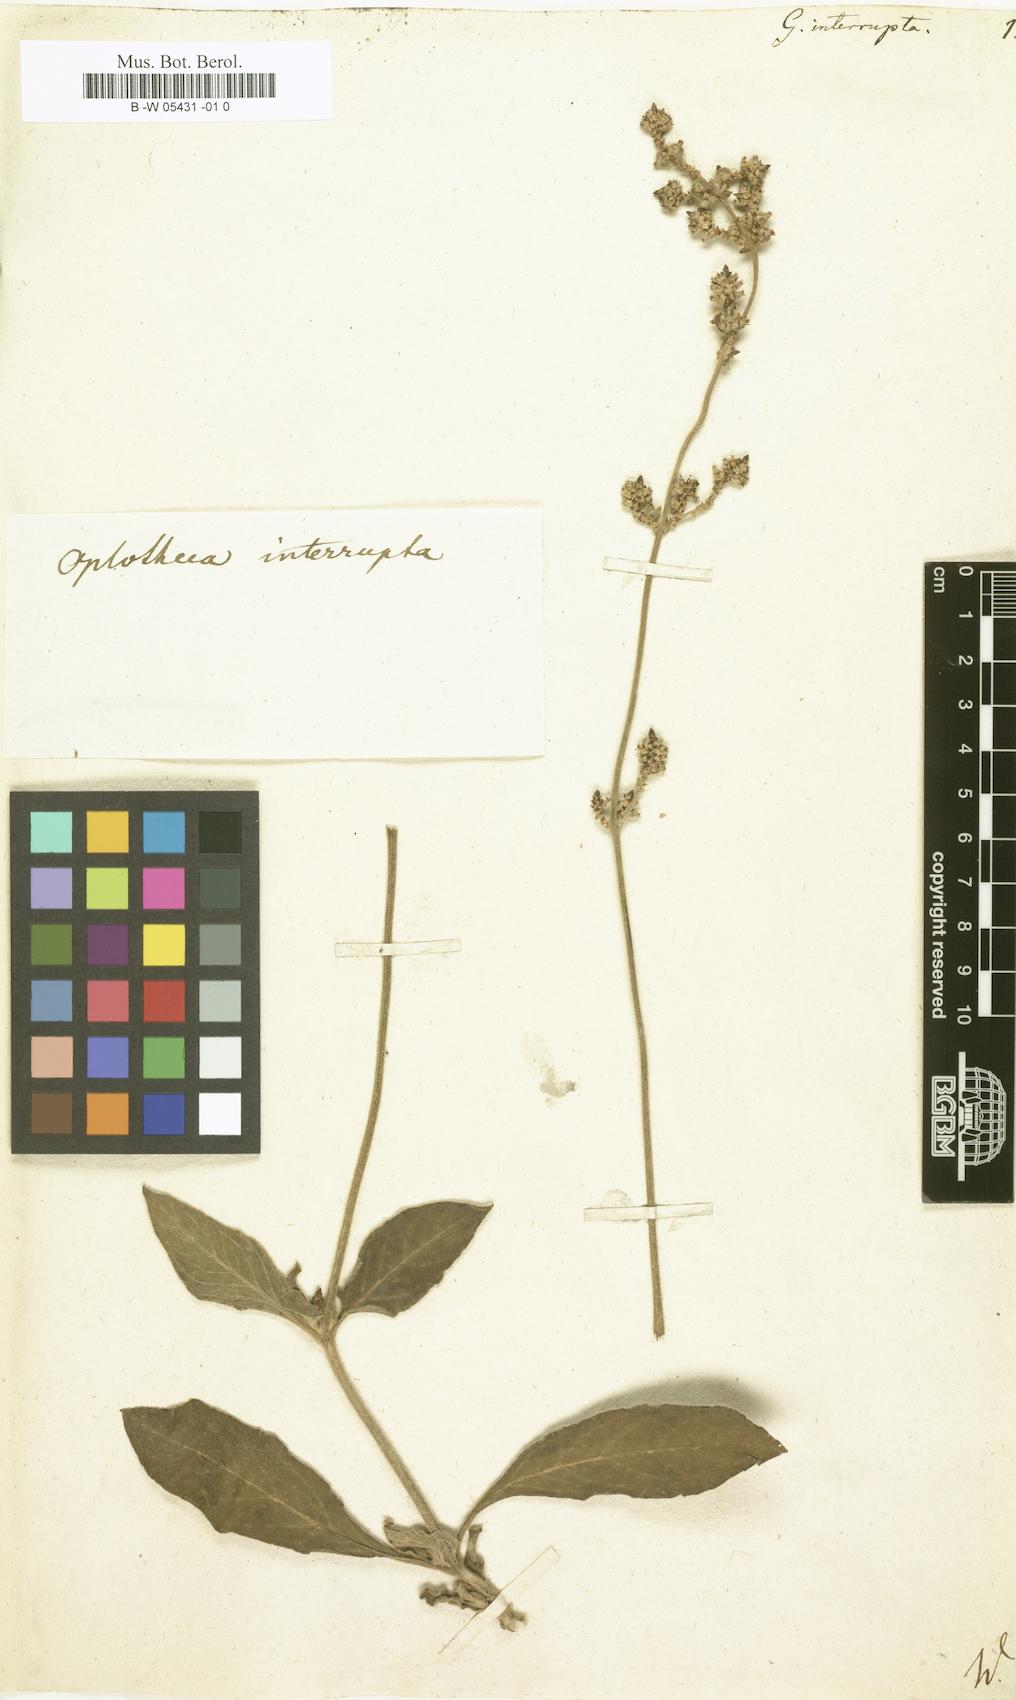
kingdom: Plantae
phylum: Tracheophyta
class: Magnoliopsida
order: Caryophyllales
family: Amaranthaceae
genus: Froelichia
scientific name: Froelichia interrupta
